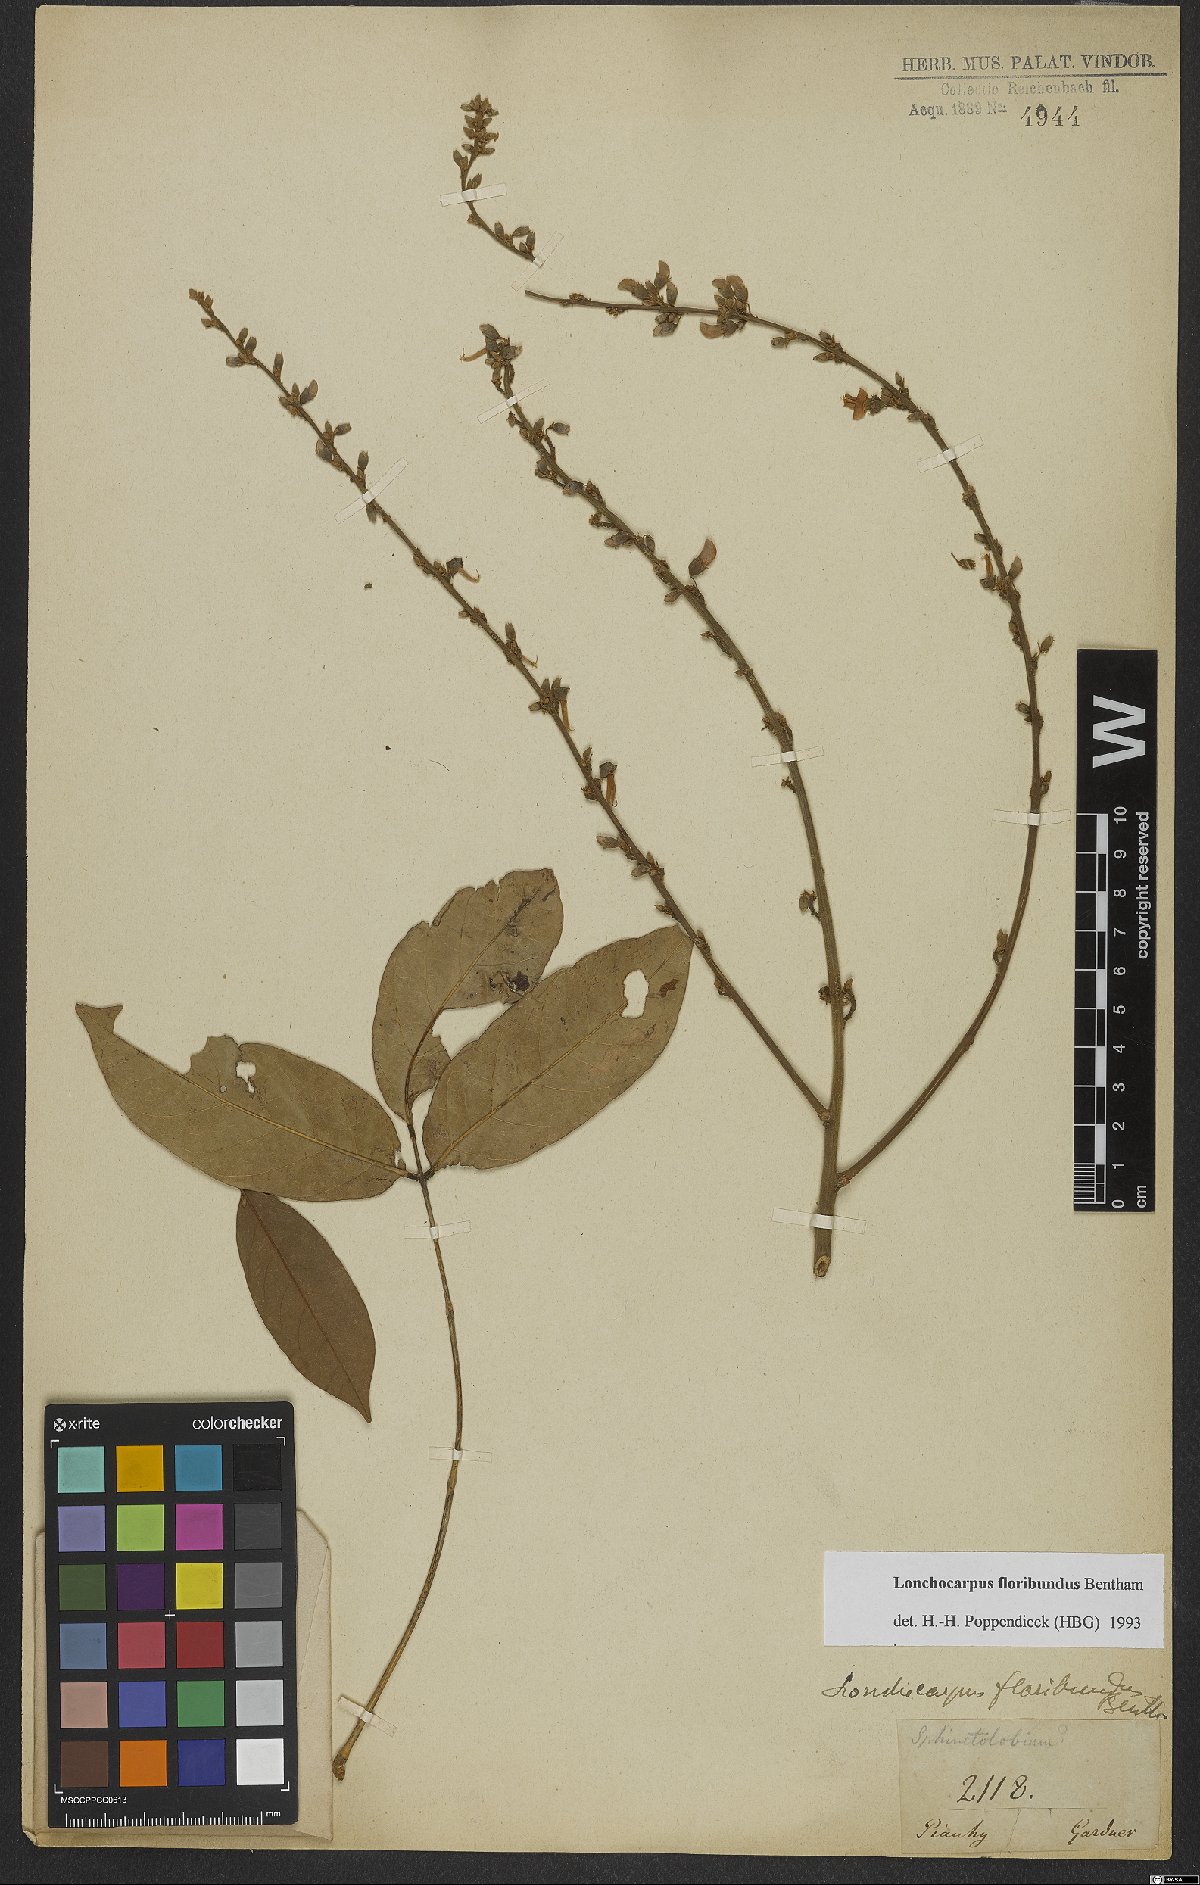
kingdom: Plantae
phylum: Tracheophyta
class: Magnoliopsida
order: Fabales
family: Fabaceae
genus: Deguelia
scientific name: Deguelia nitidula
